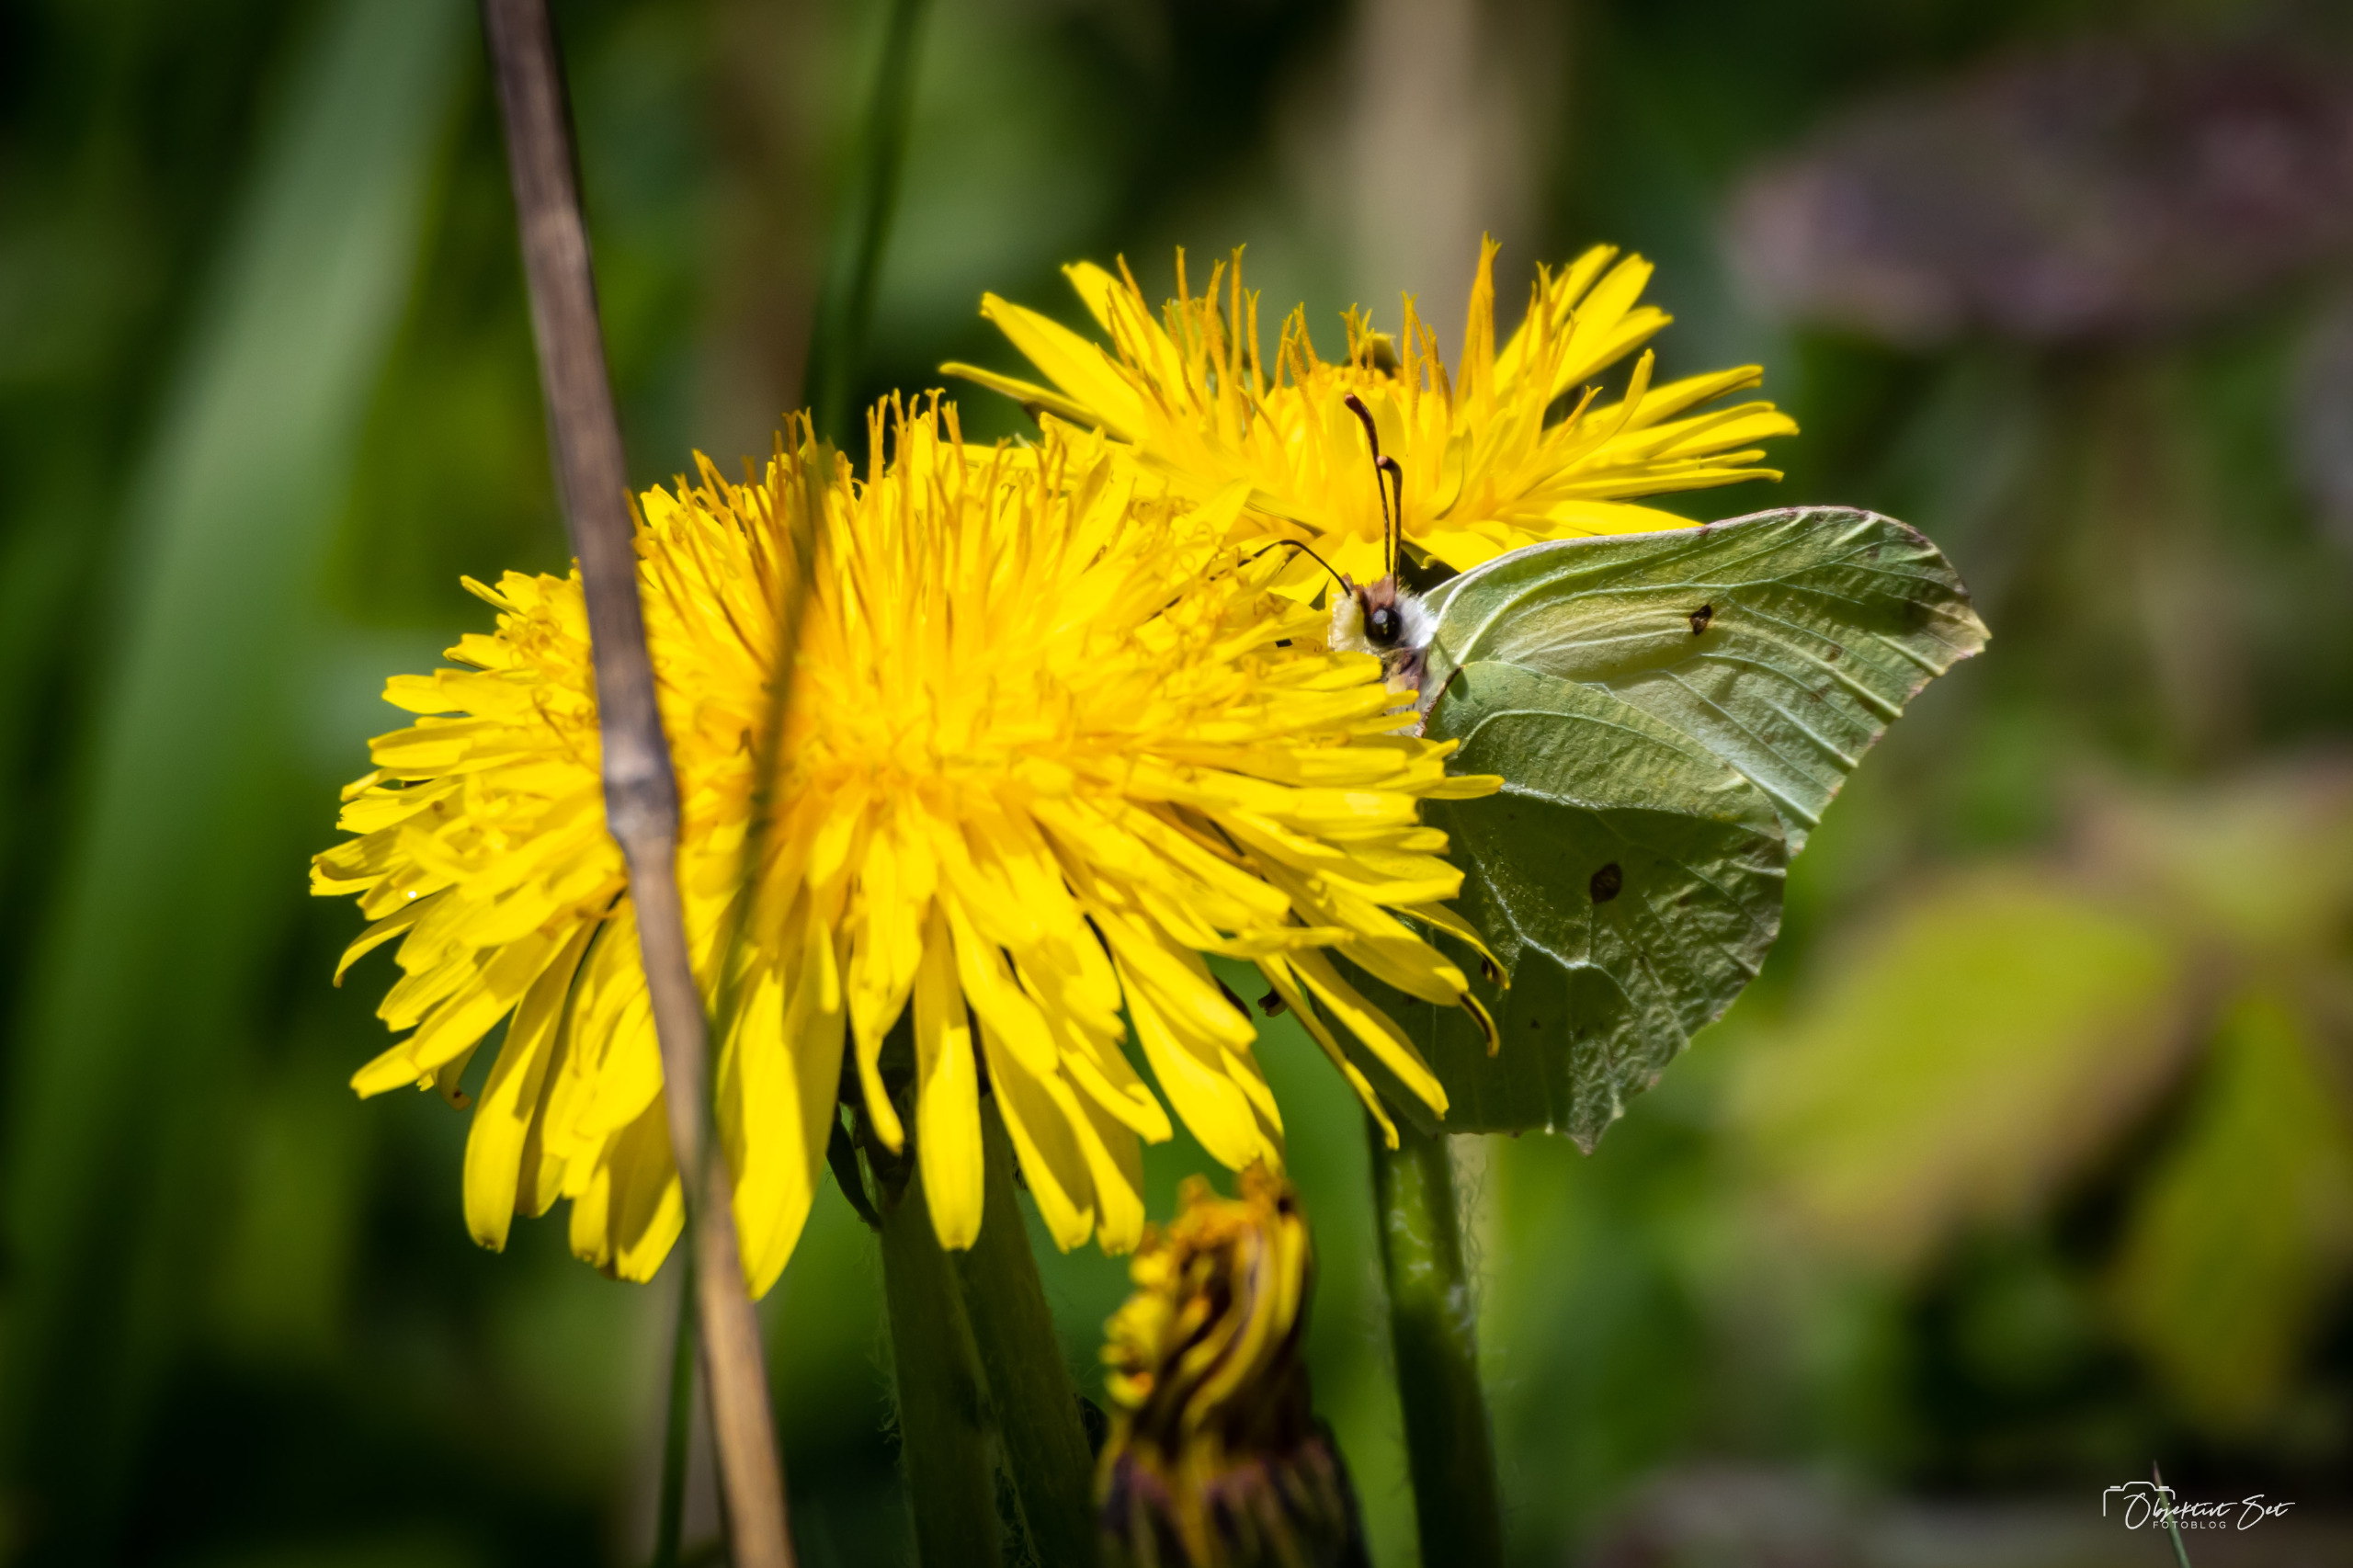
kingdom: Animalia
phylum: Arthropoda
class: Insecta
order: Lepidoptera
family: Pieridae
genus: Gonepteryx
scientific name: Gonepteryx rhamni
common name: Citronsommerfugl
